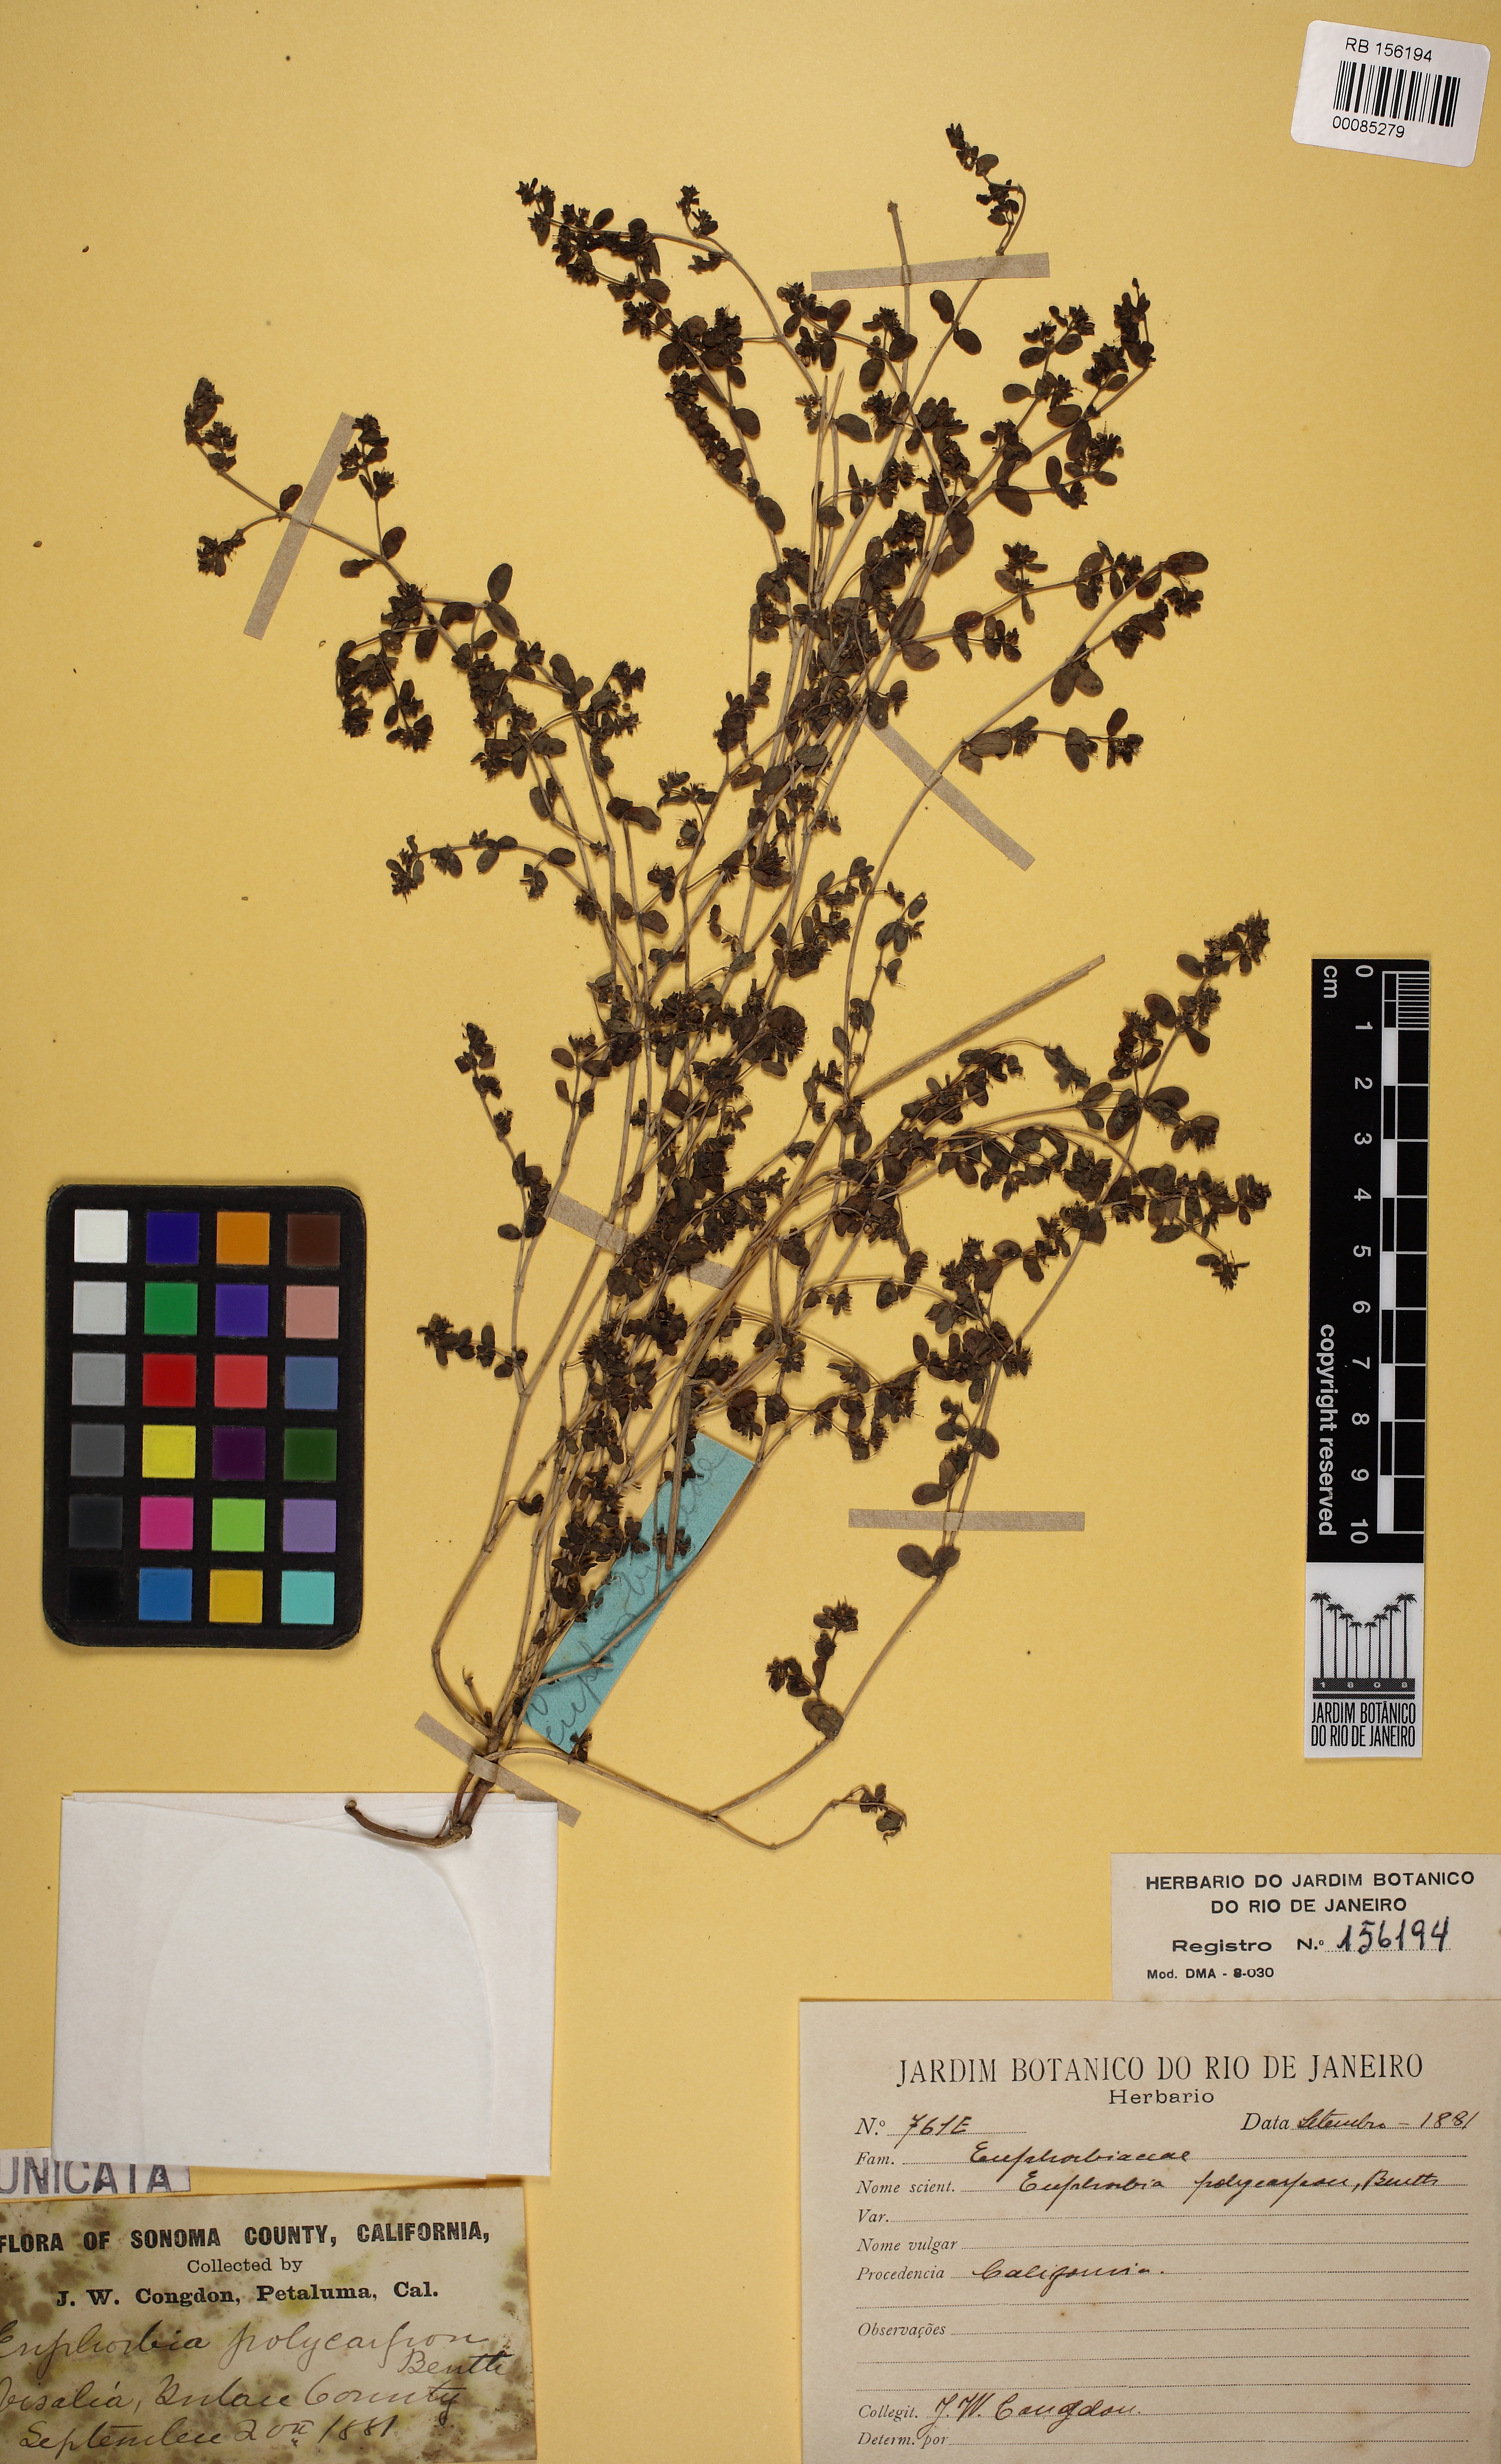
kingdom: Plantae
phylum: Tracheophyta
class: Magnoliopsida
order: Malpighiales
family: Euphorbiaceae
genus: Euphorbia
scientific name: Euphorbia polycarpa
